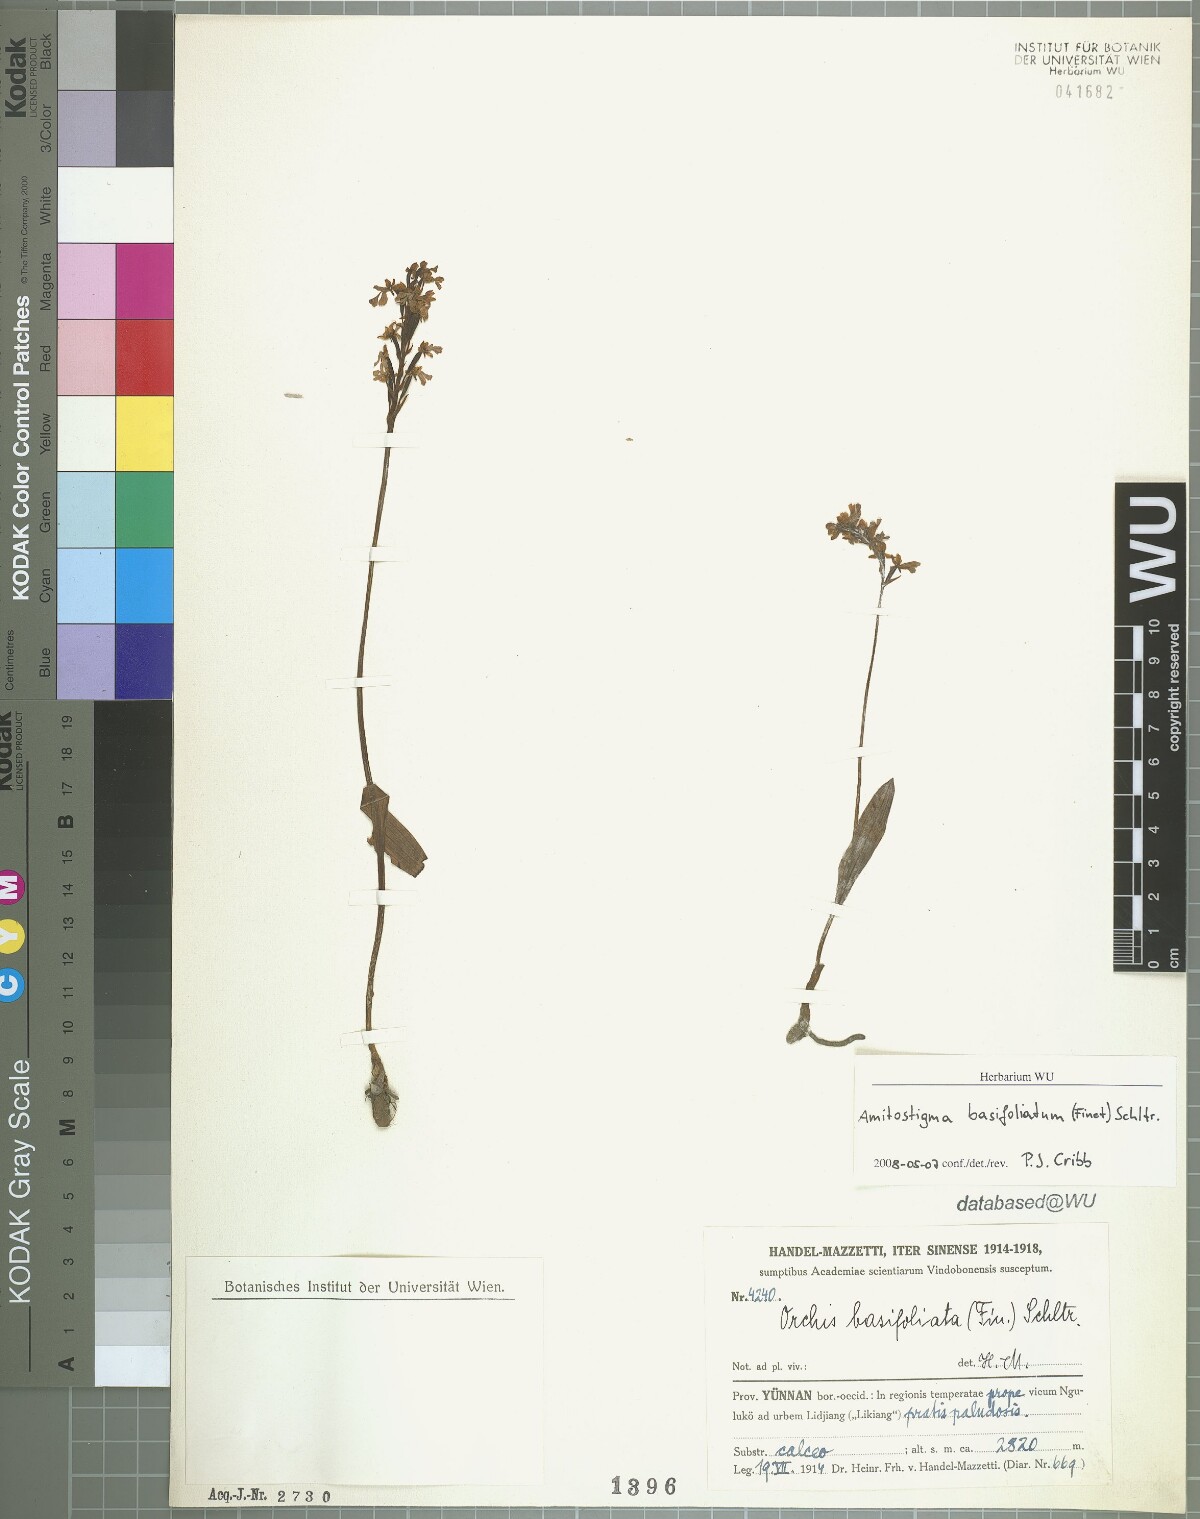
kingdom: Plantae
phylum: Tracheophyta
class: Liliopsida
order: Asparagales
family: Orchidaceae
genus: Hemipilia
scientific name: Hemipilia basifoliata
